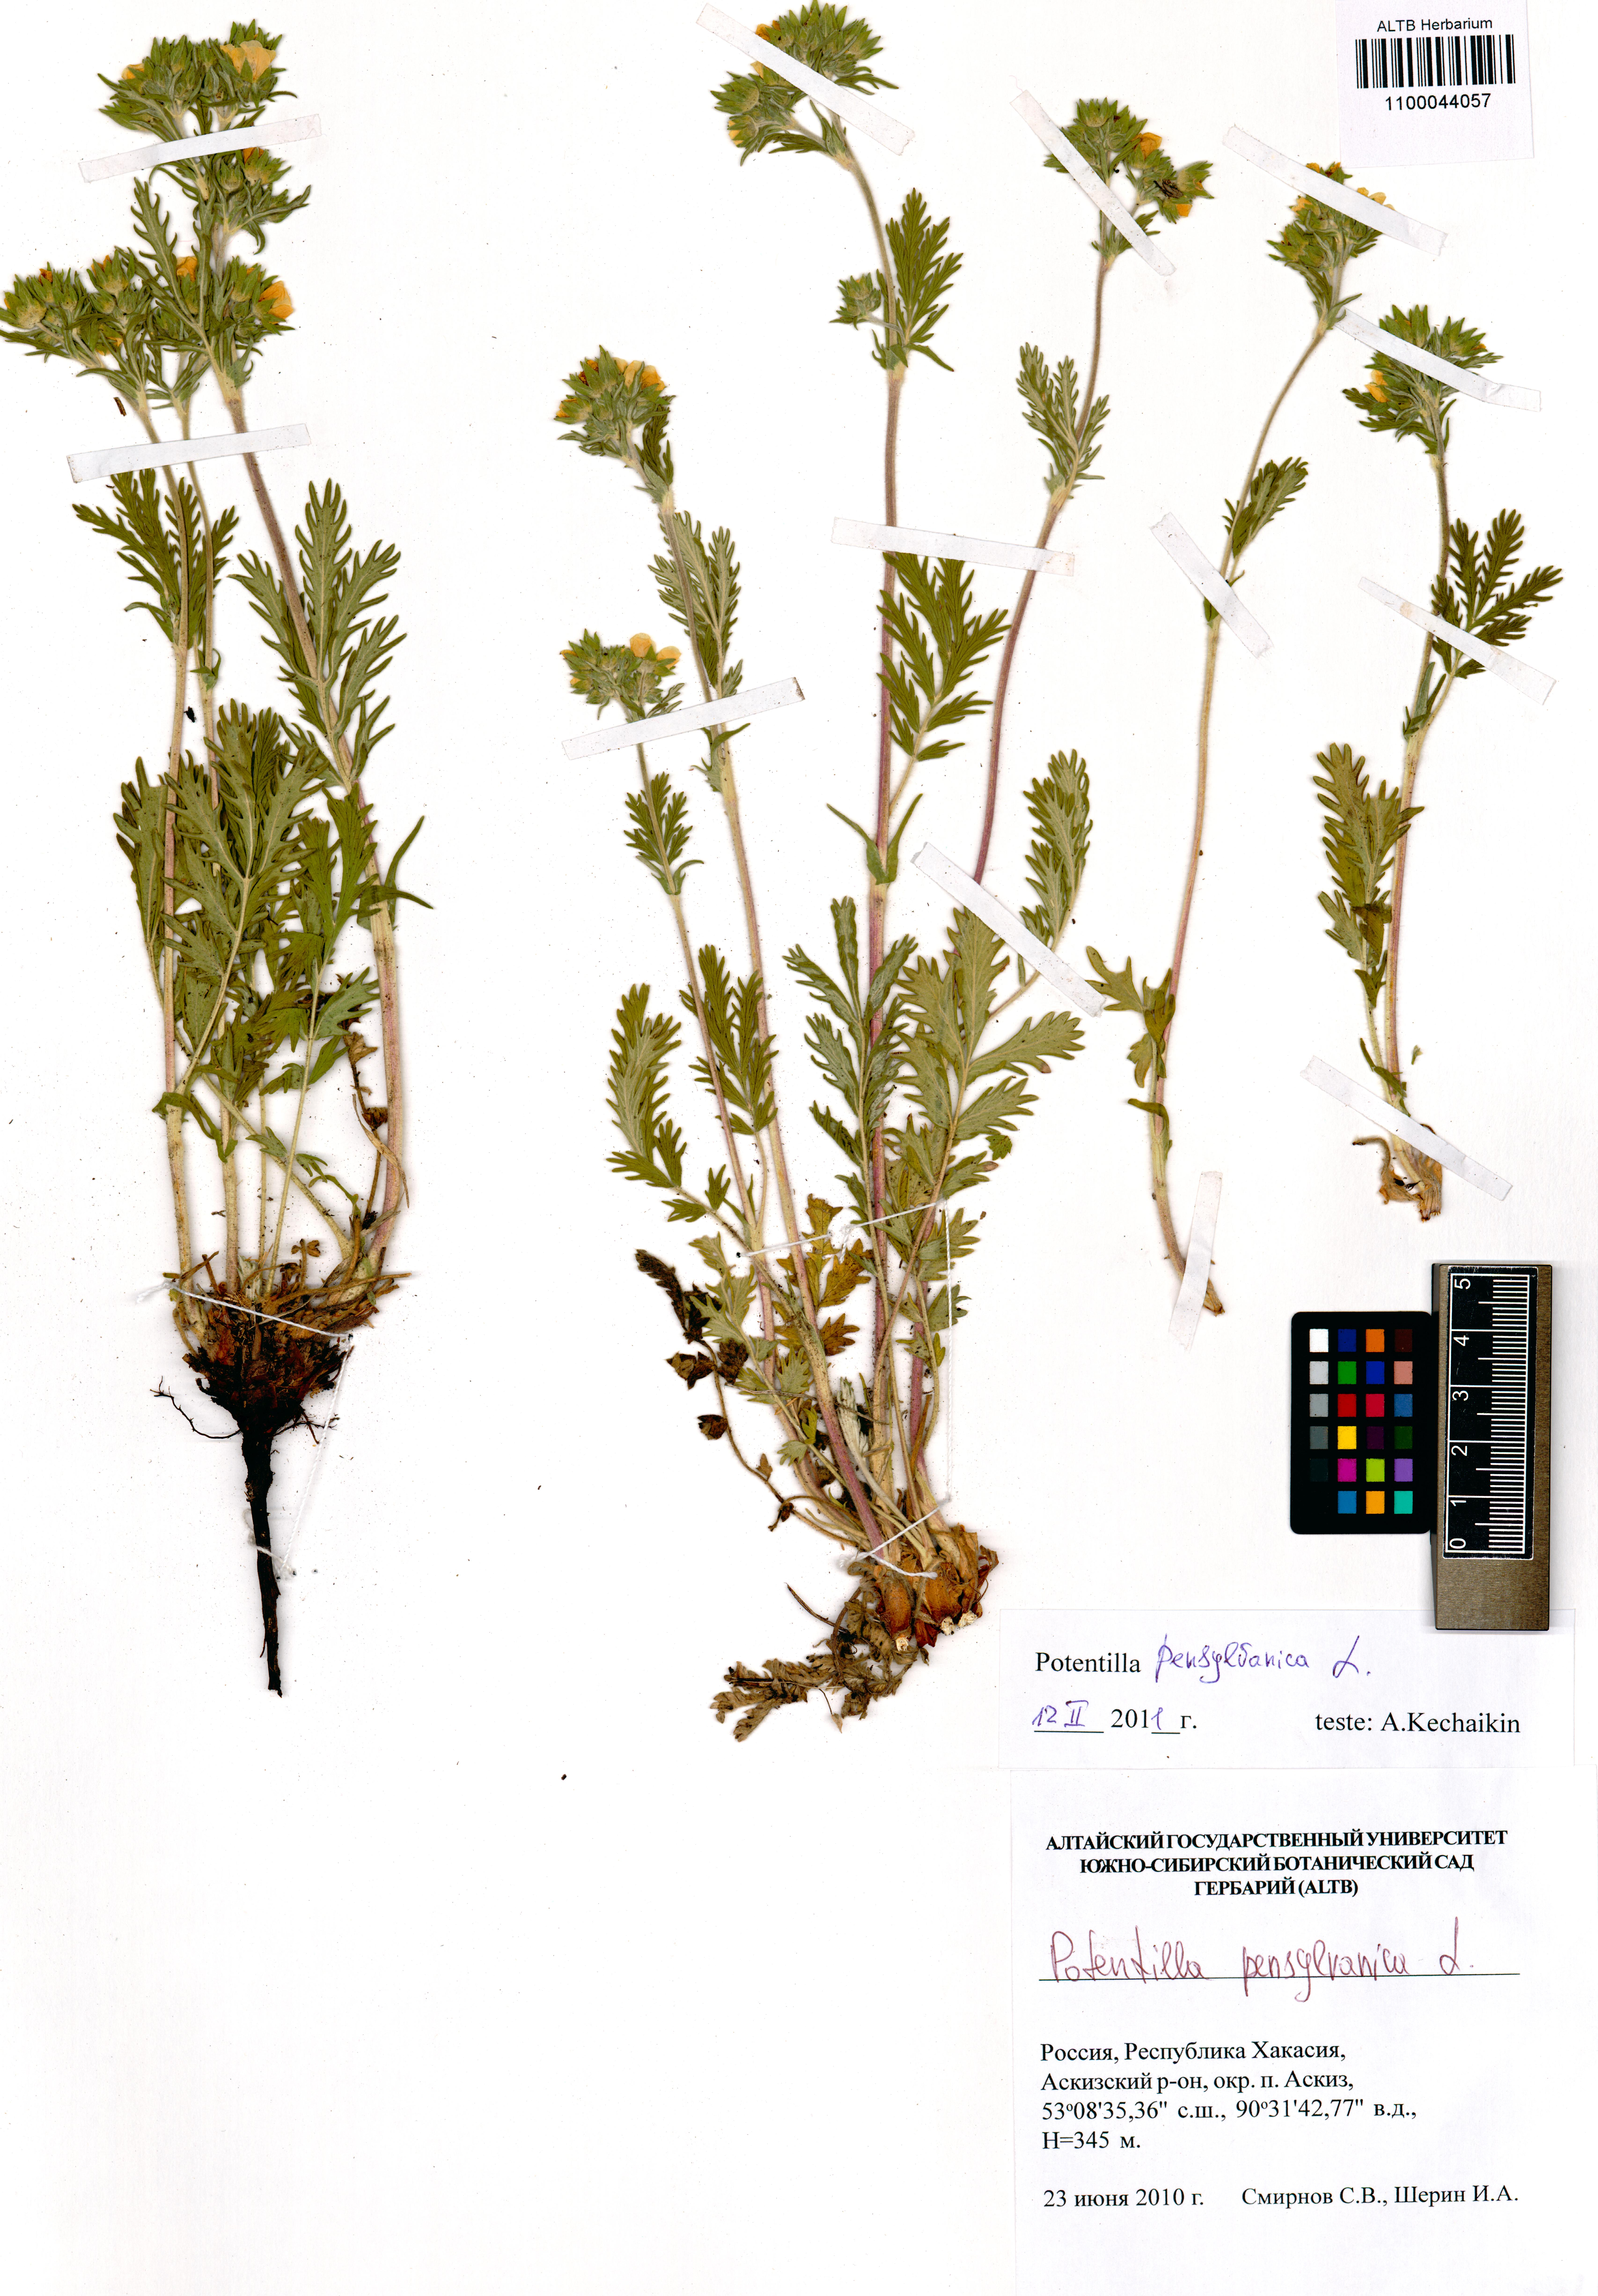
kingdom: Plantae
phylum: Tracheophyta
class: Magnoliopsida
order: Rosales
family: Rosaceae
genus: Potentilla
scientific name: Potentilla pensylvanica
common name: Pennsylvania cinquefoil
